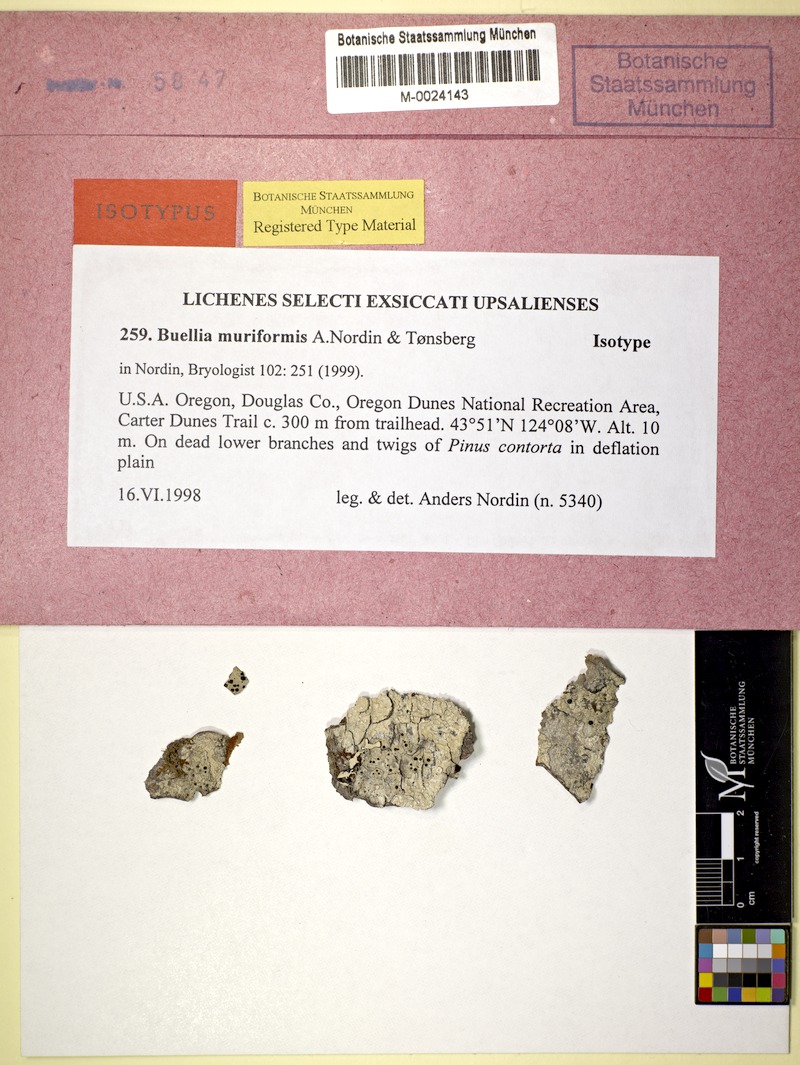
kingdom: Fungi
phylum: Ascomycota
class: Lecanoromycetes
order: Caliciales
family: Caliciaceae
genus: Buellia
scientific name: Buellia muriformis
